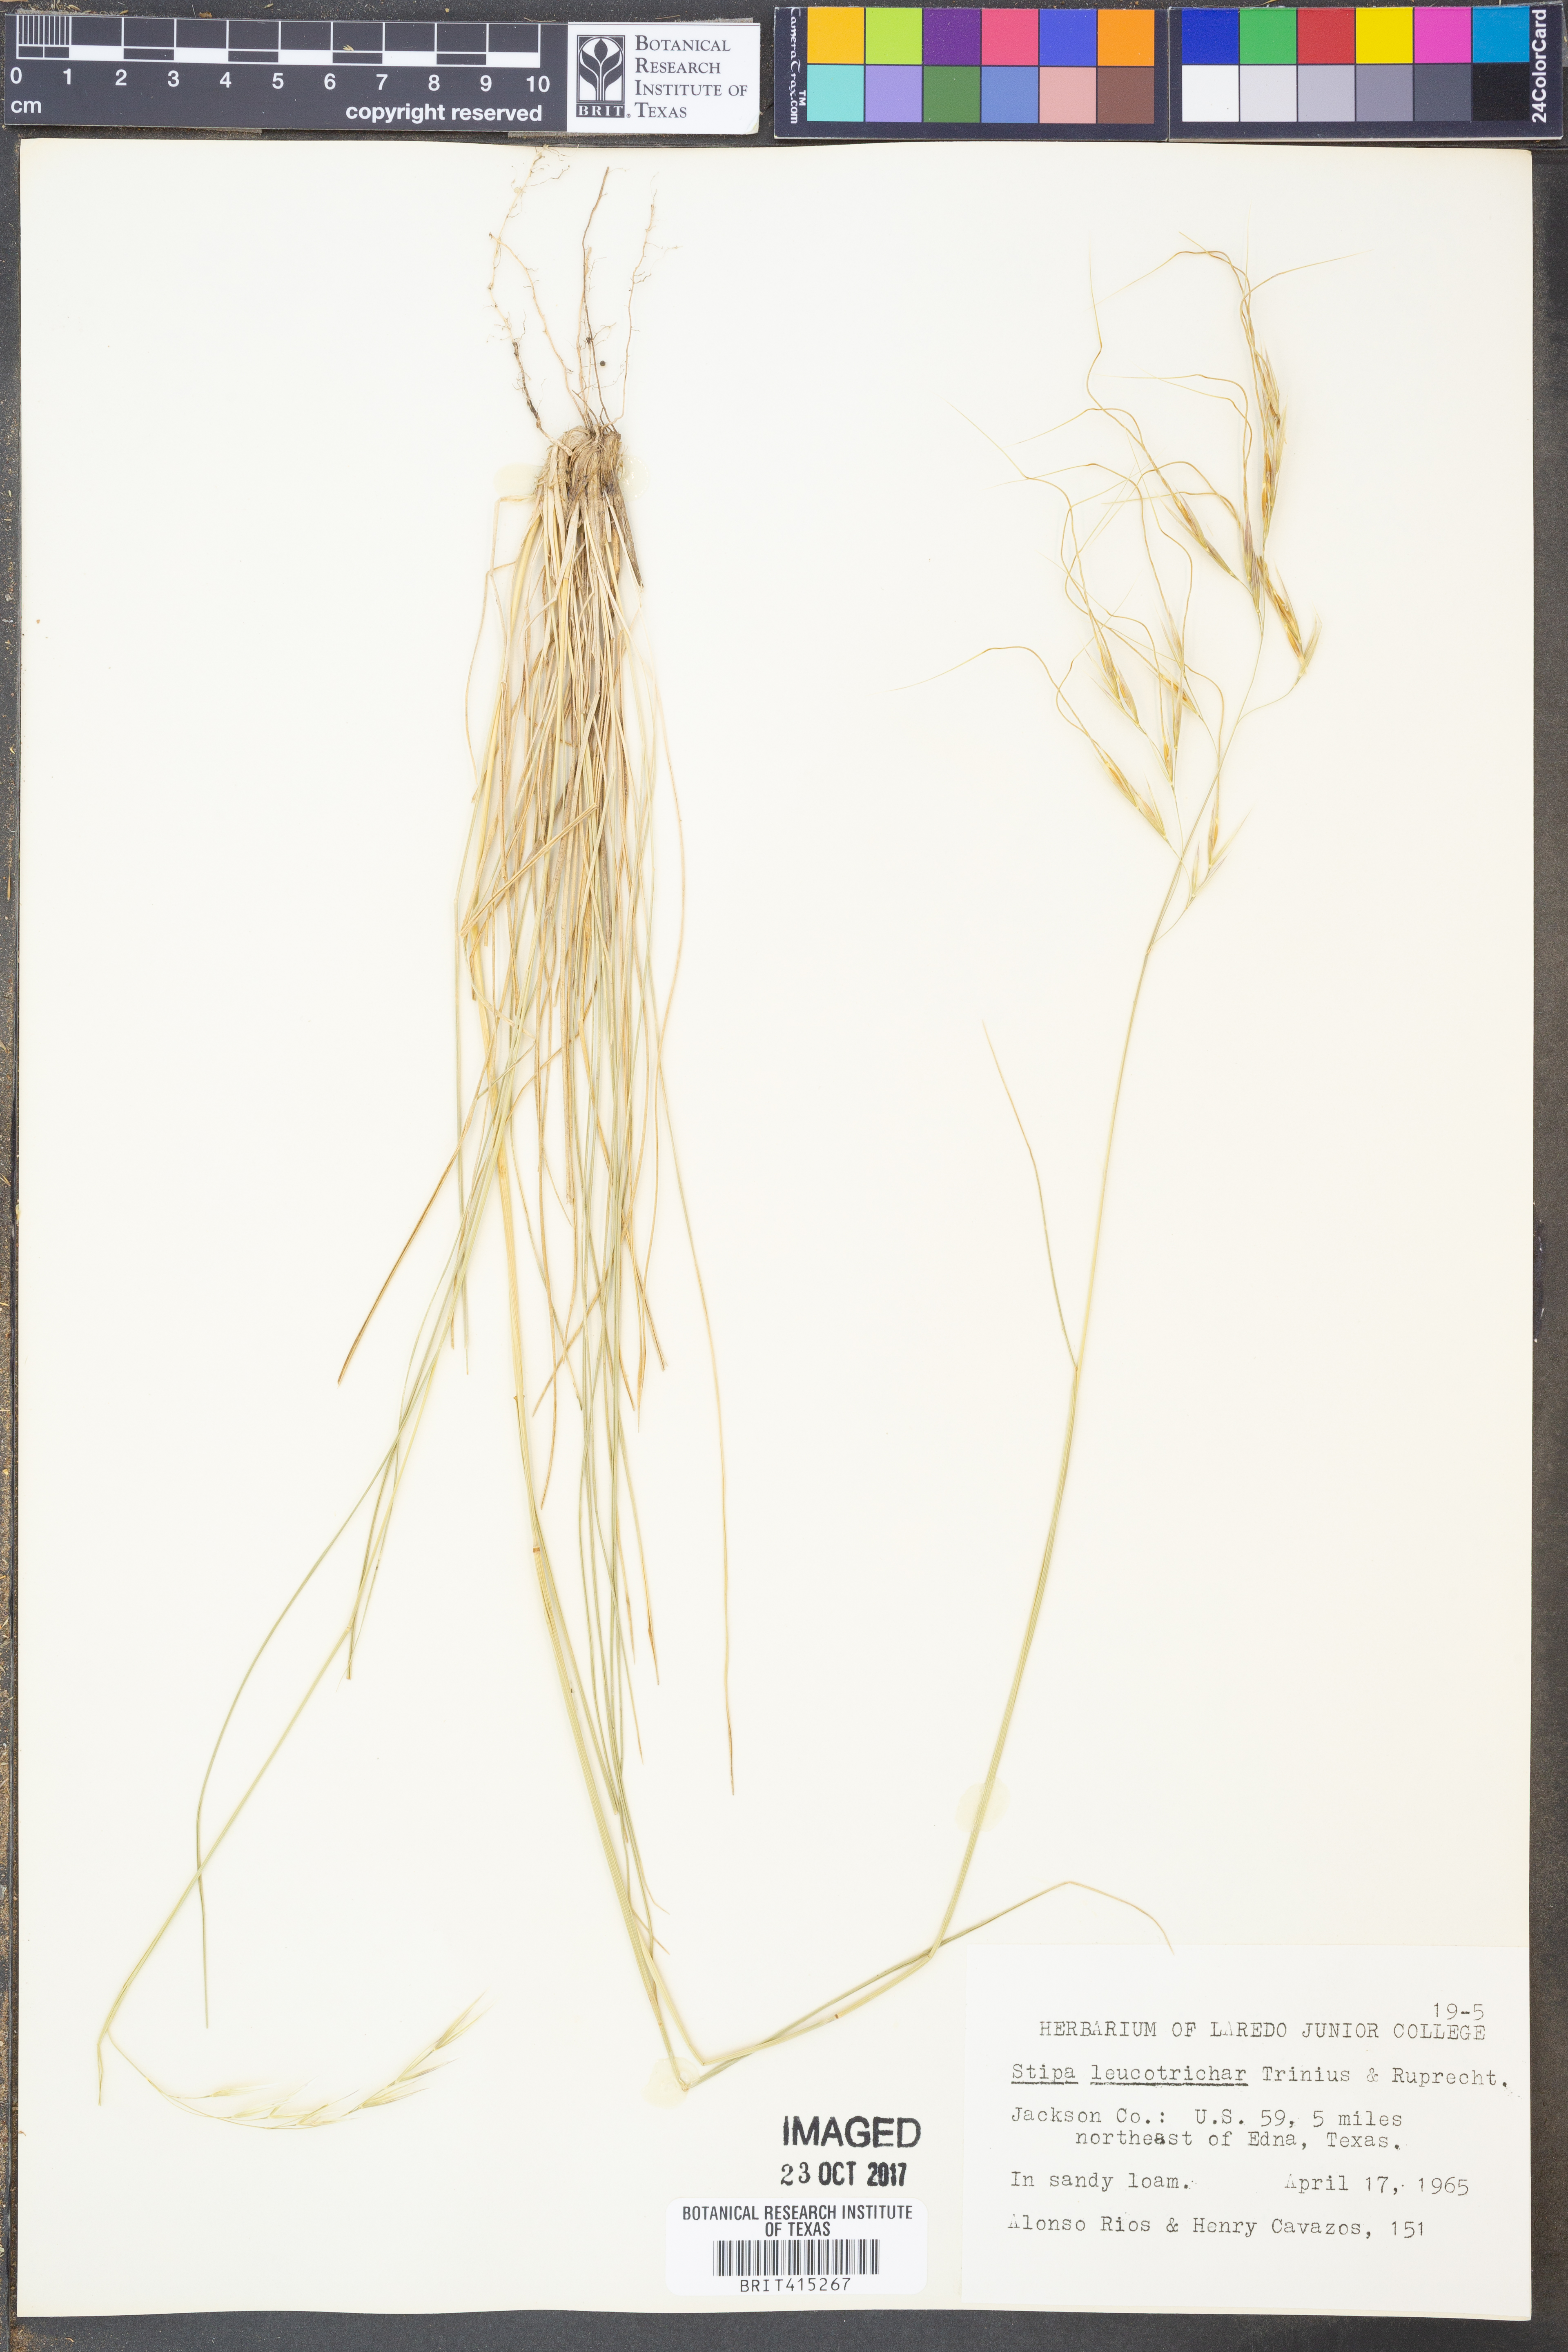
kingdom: Plantae
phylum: Tracheophyta
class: Liliopsida
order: Poales
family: Poaceae
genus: Nassella
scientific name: Nassella leucotricha
